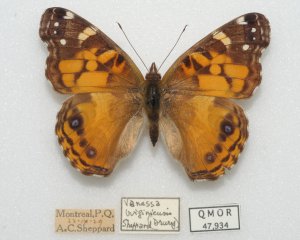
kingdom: Animalia
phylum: Arthropoda
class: Insecta
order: Lepidoptera
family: Nymphalidae
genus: Vanessa
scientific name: Vanessa virginiensis
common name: American Lady
